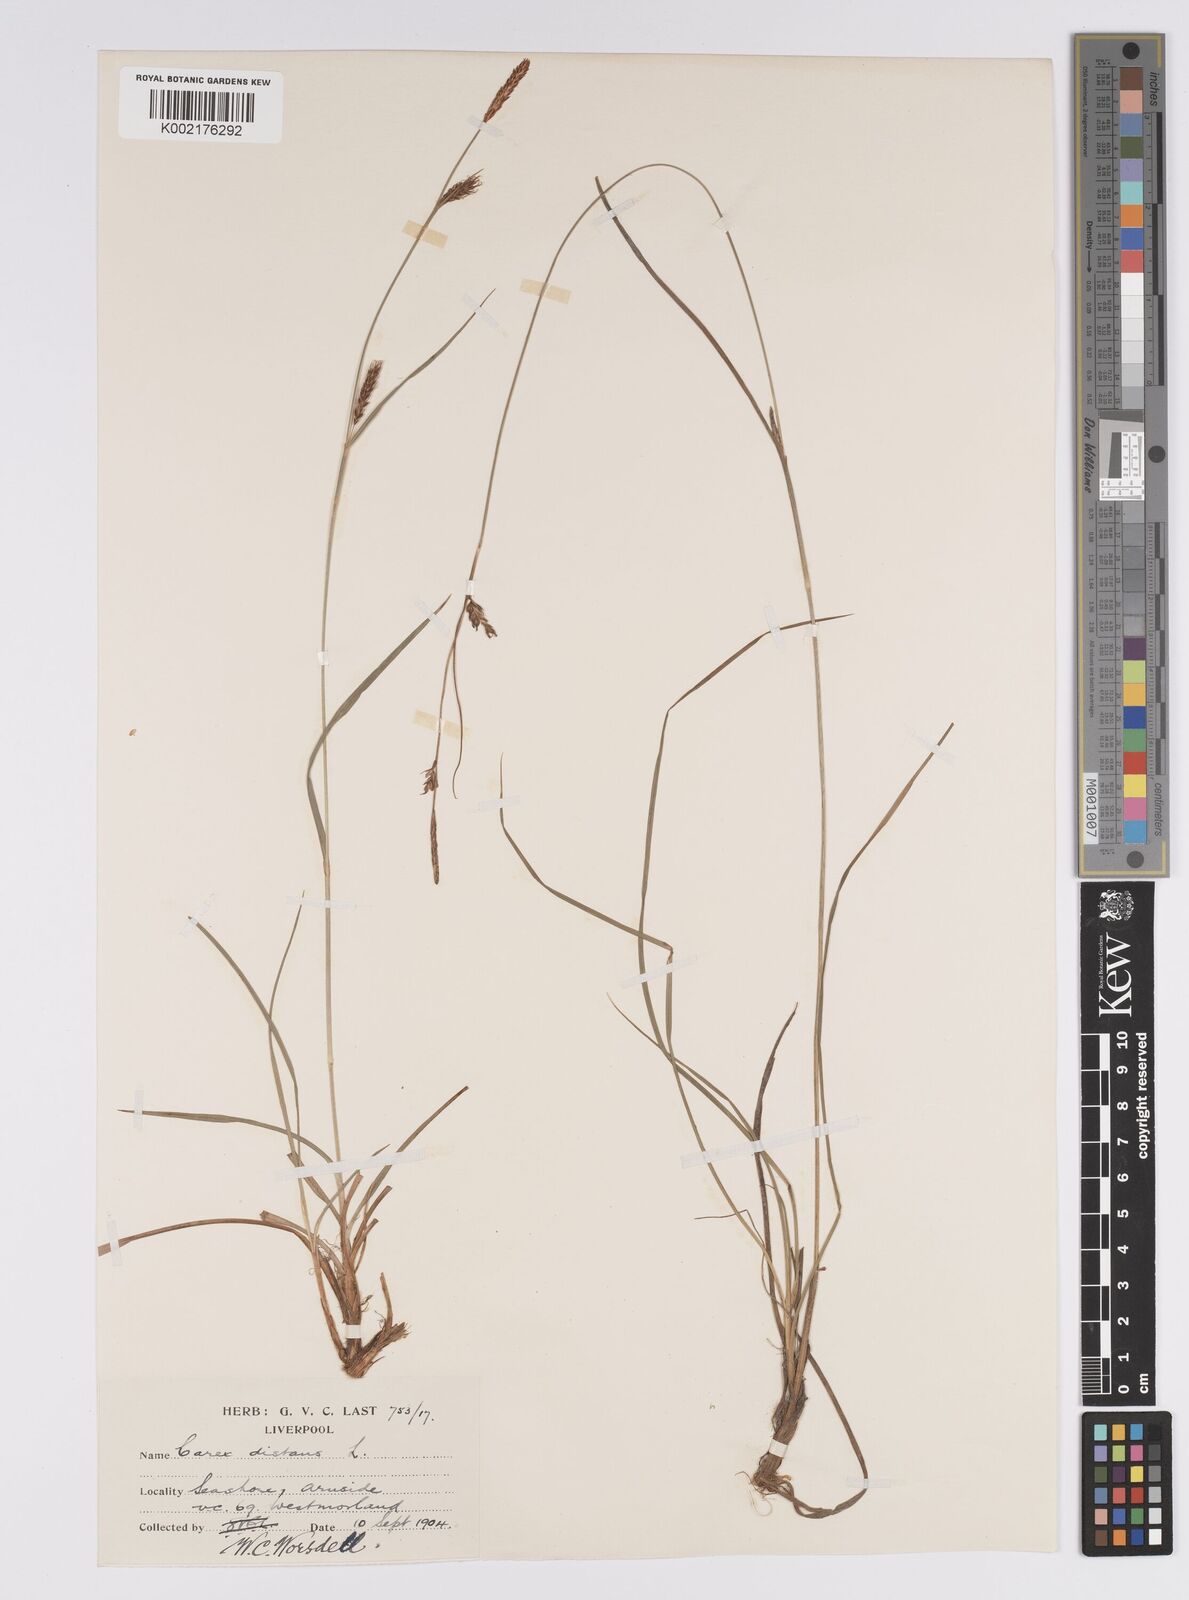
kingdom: Plantae
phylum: Tracheophyta
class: Liliopsida
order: Poales
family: Cyperaceae
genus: Carex
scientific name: Carex distans
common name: Distant sedge
